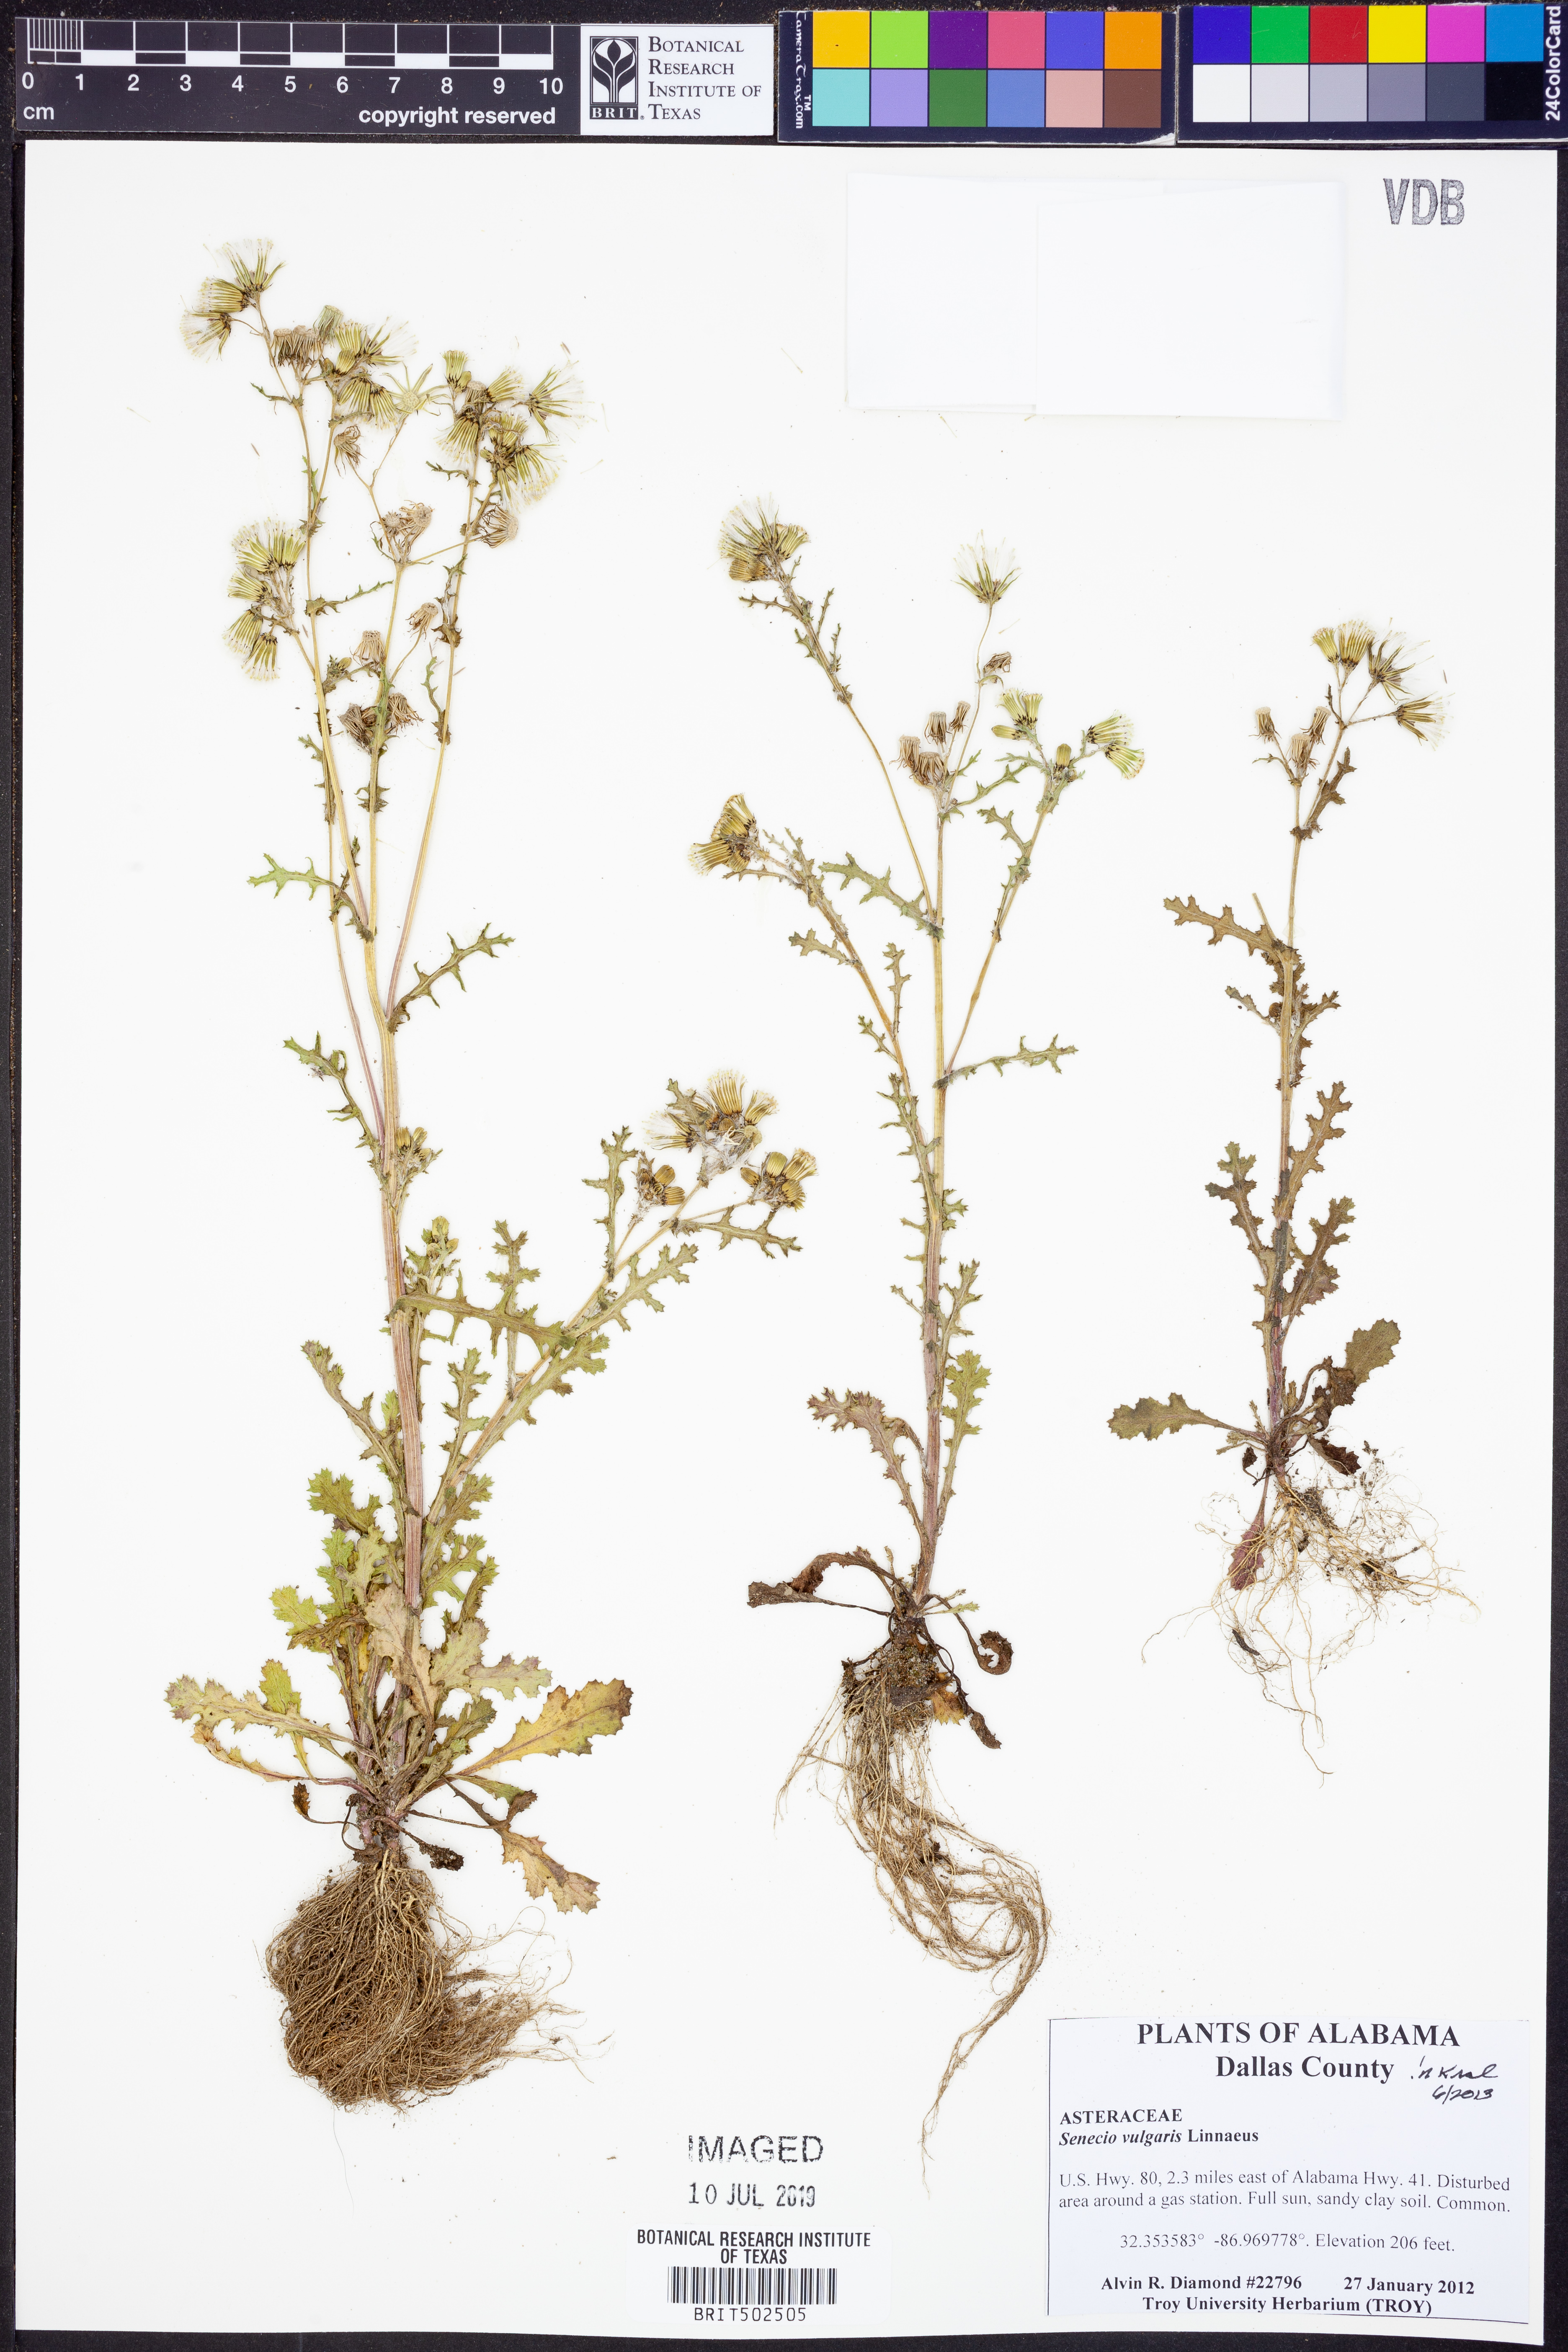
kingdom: Plantae
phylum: Tracheophyta
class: Magnoliopsida
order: Asterales
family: Asteraceae
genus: Senecio
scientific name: Senecio vulgaris
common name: Old-man-in-the-spring
